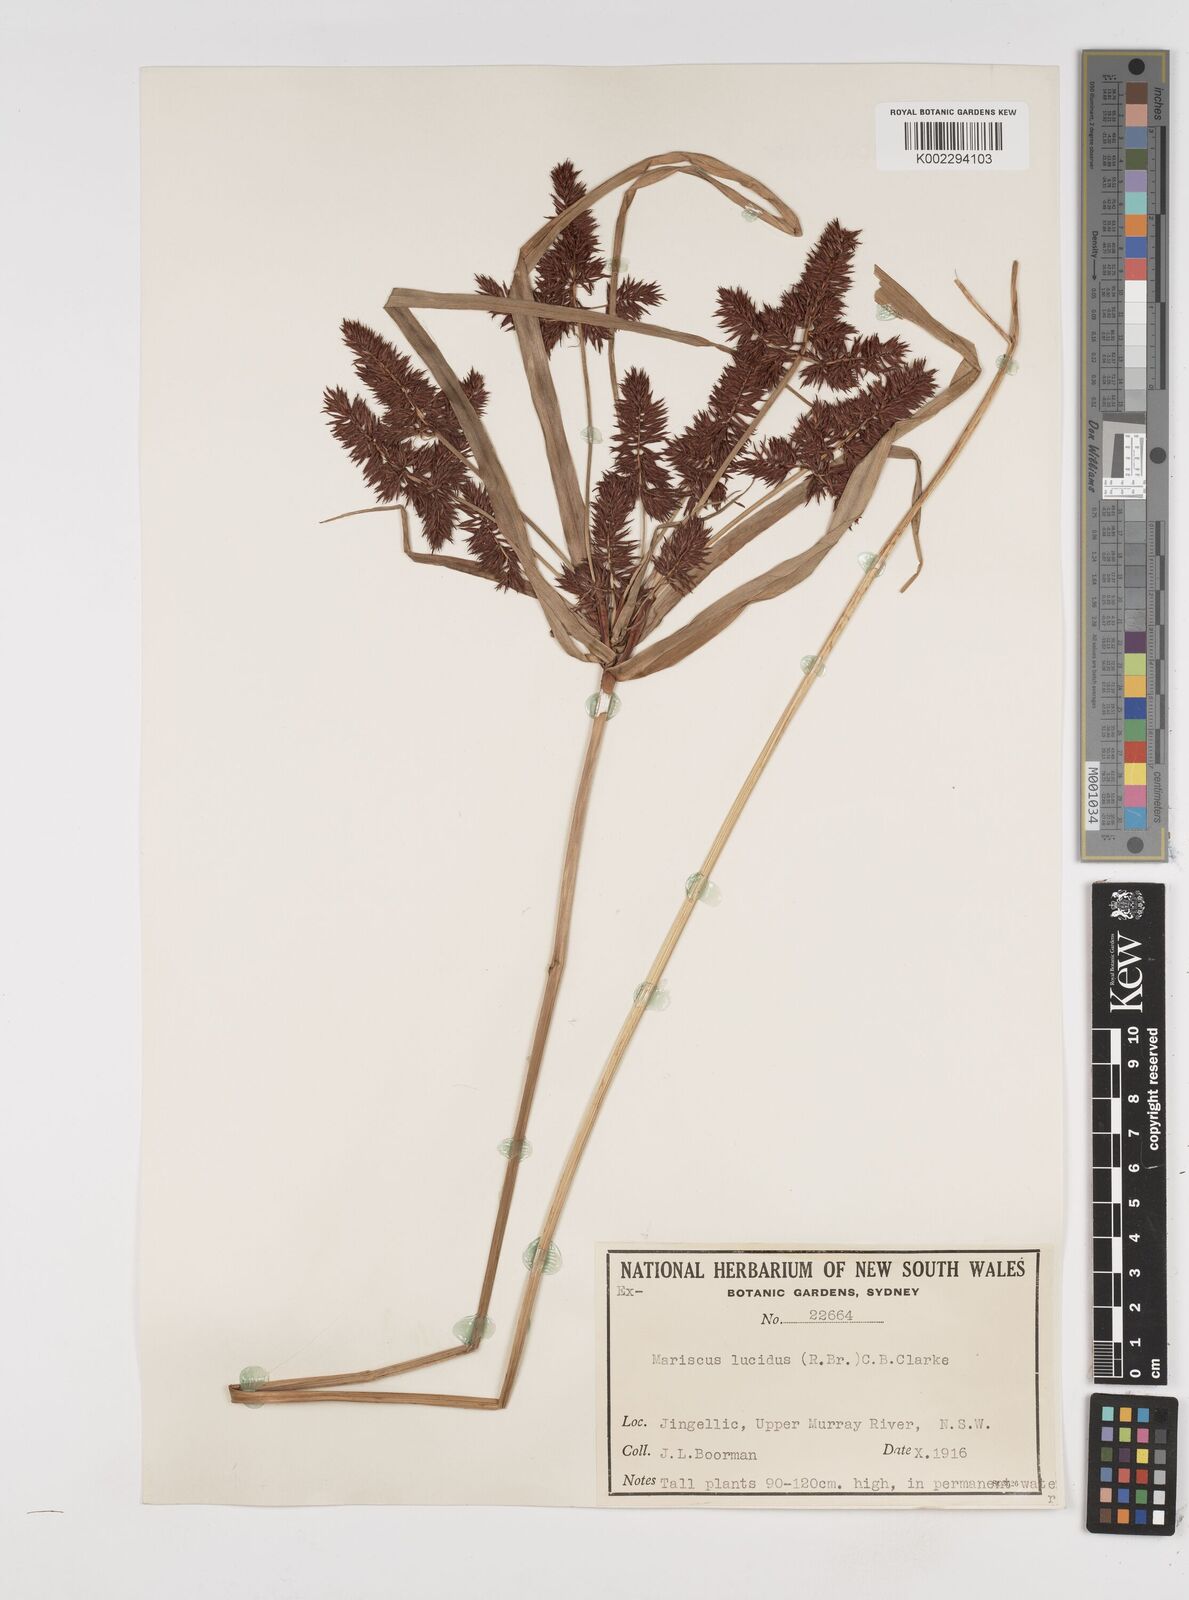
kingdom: Plantae
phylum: Tracheophyta
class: Liliopsida
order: Poales
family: Cyperaceae
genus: Cyperus
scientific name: Cyperus lucidus
